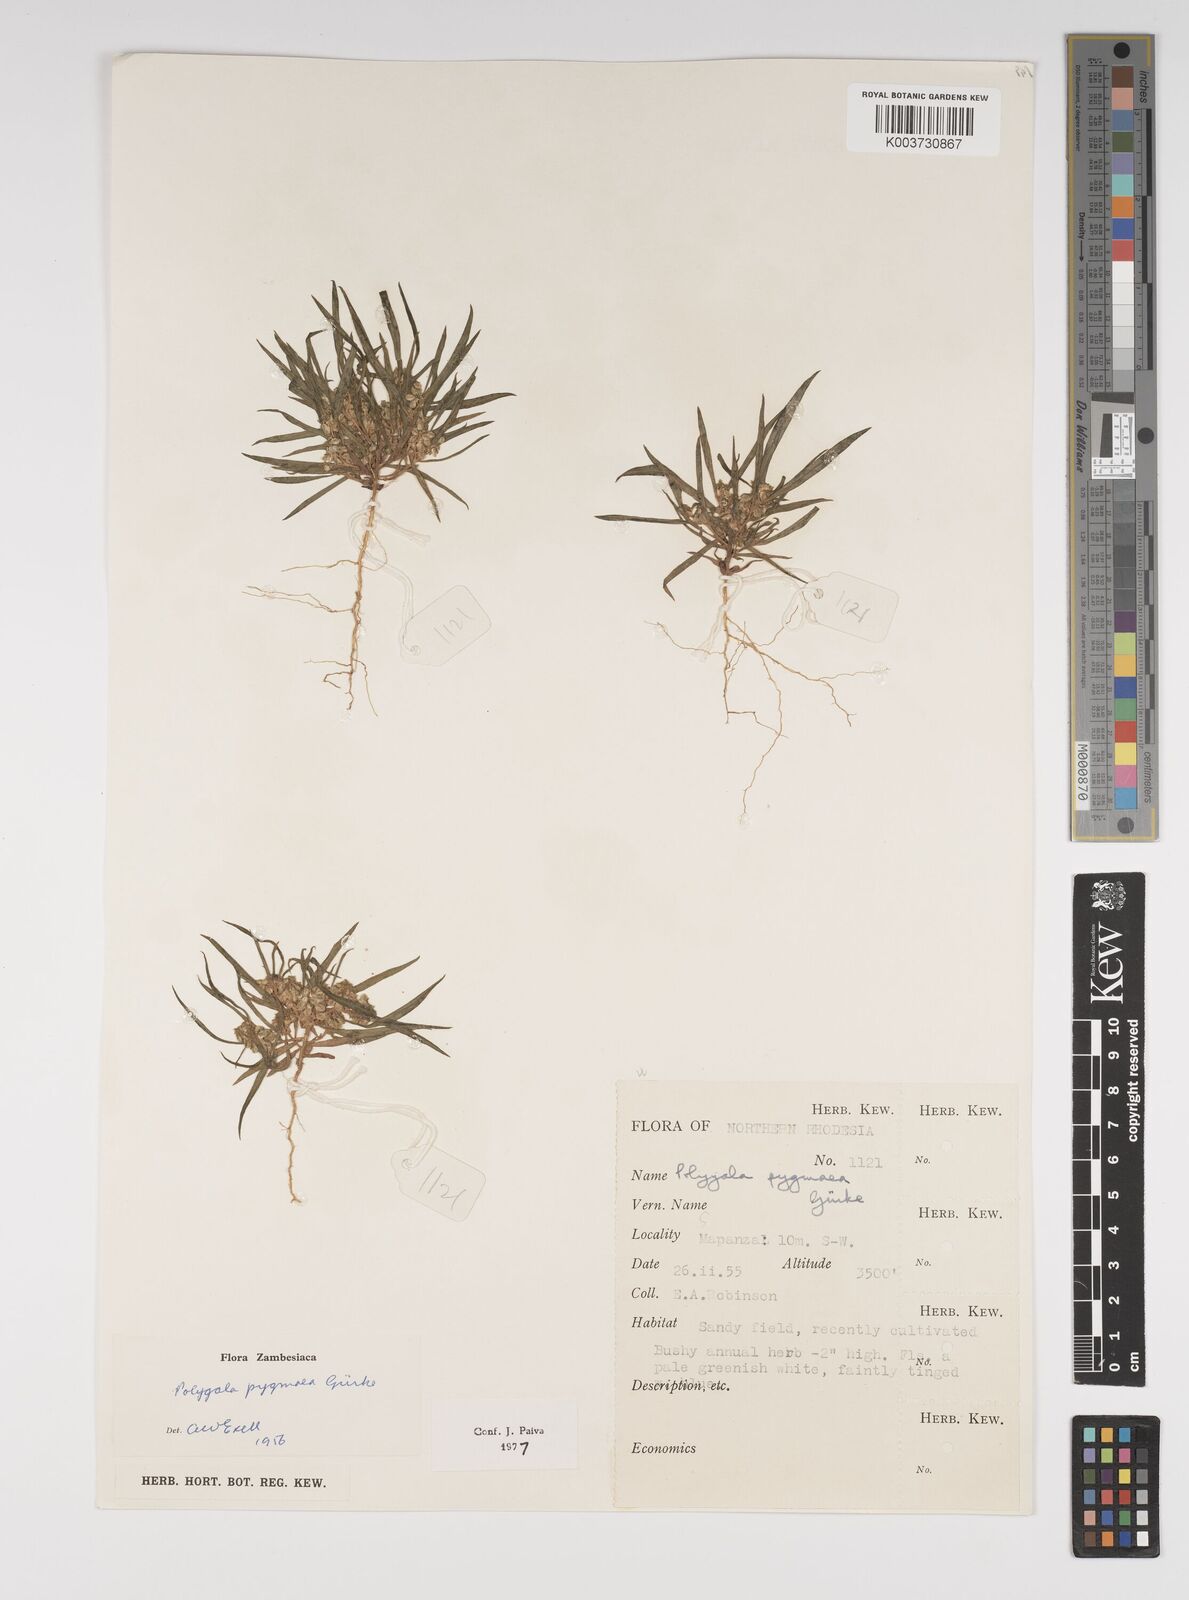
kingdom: Plantae
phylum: Tracheophyta
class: Magnoliopsida
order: Fabales
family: Polygalaceae
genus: Polygala
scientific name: Polygala welwitschii
